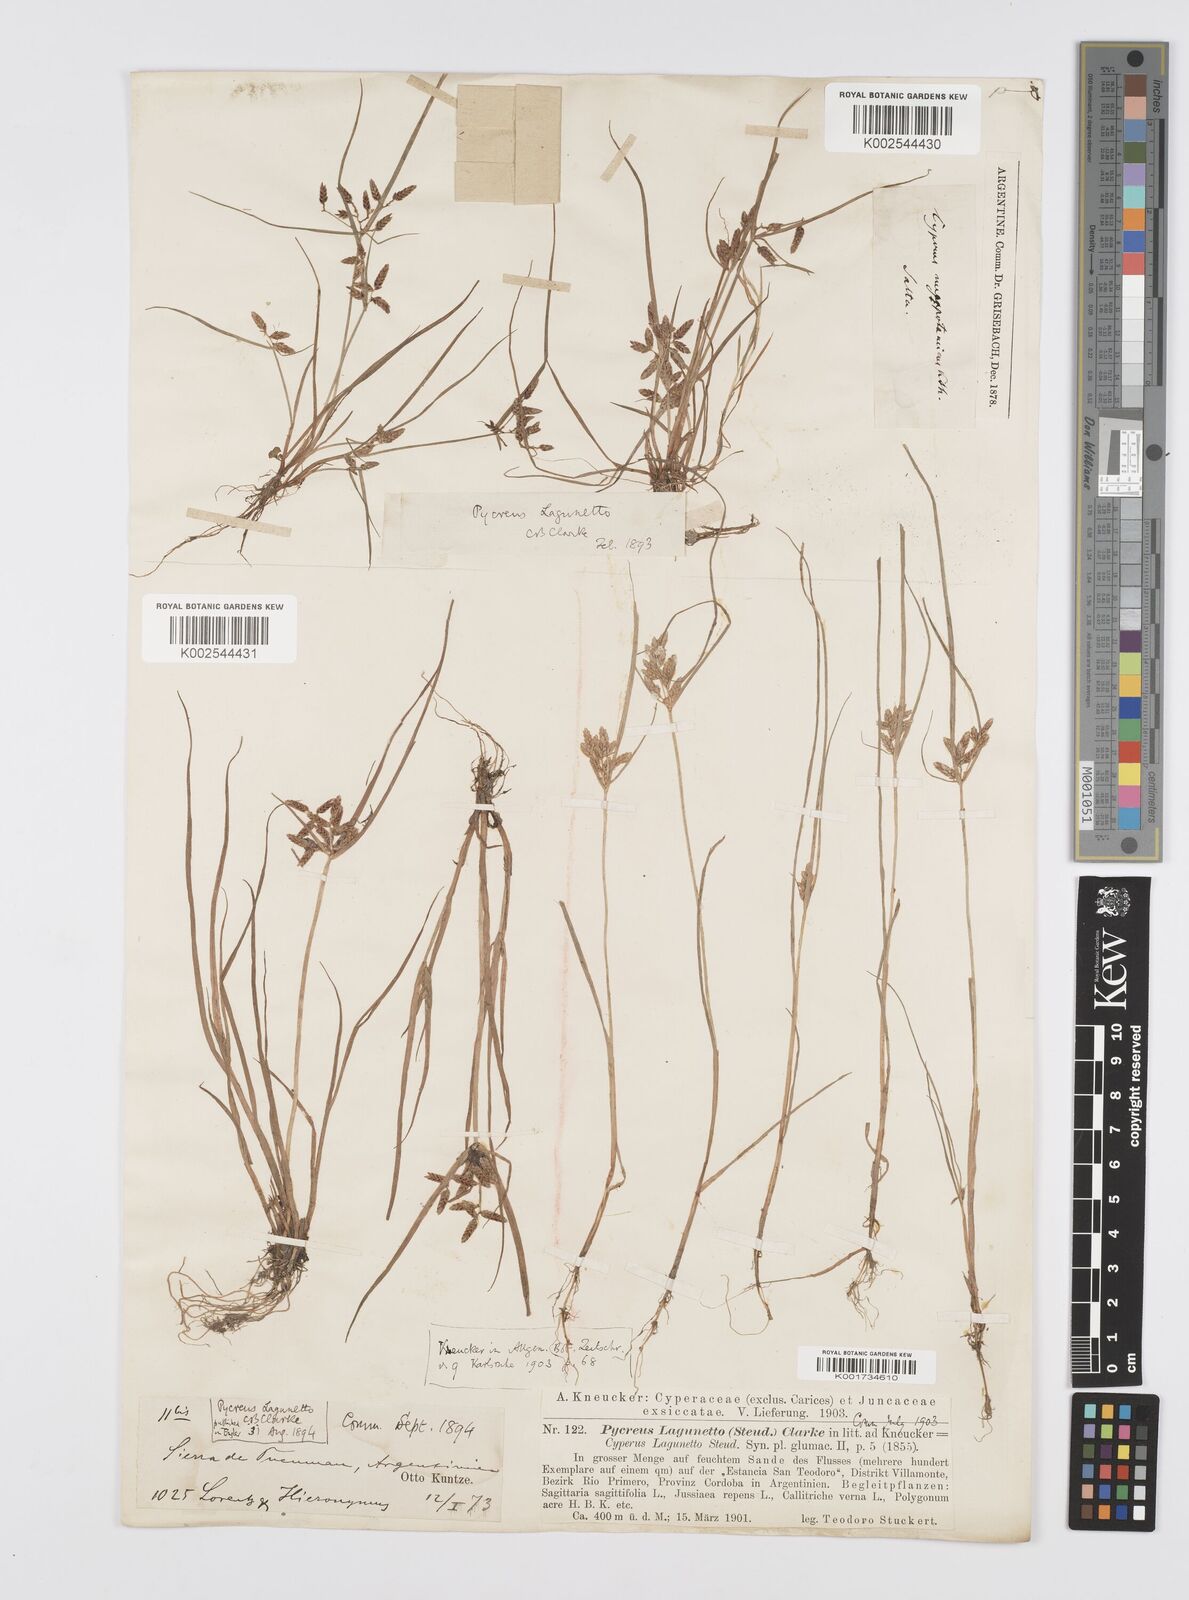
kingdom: Plantae
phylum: Tracheophyta
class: Liliopsida
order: Poales
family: Cyperaceae
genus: Cyperus
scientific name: Cyperus bipartitus
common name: Brook flatsedge
